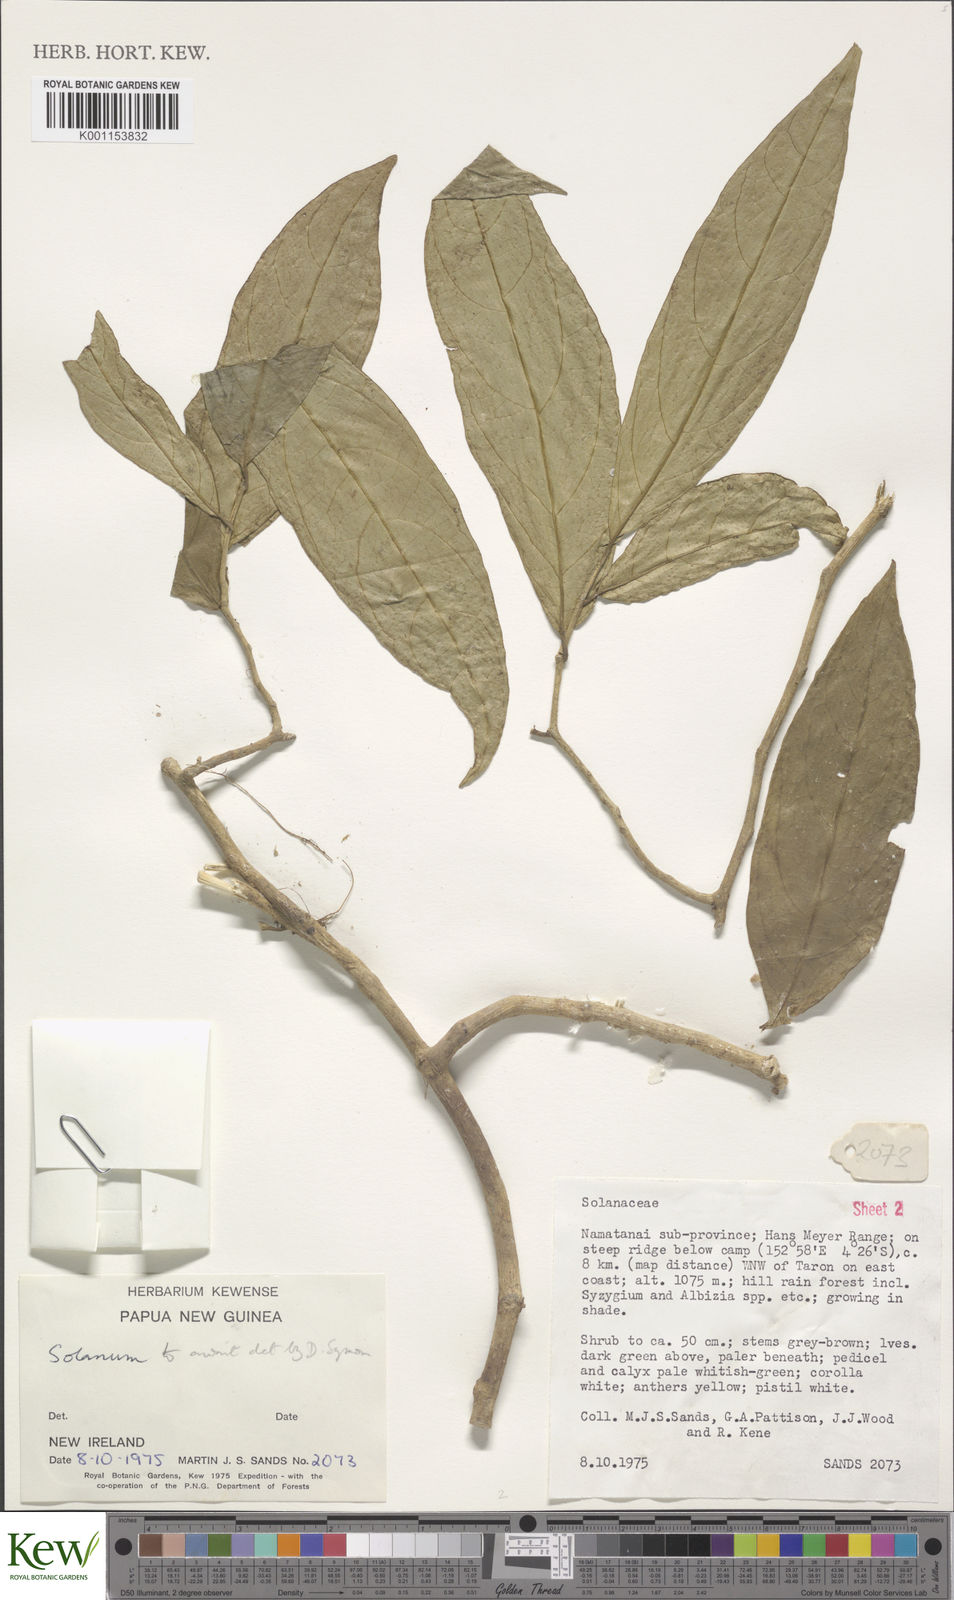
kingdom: Plantae
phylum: Tracheophyta
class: Magnoliopsida
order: Solanales
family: Solanaceae
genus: Solanum
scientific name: Solanum
